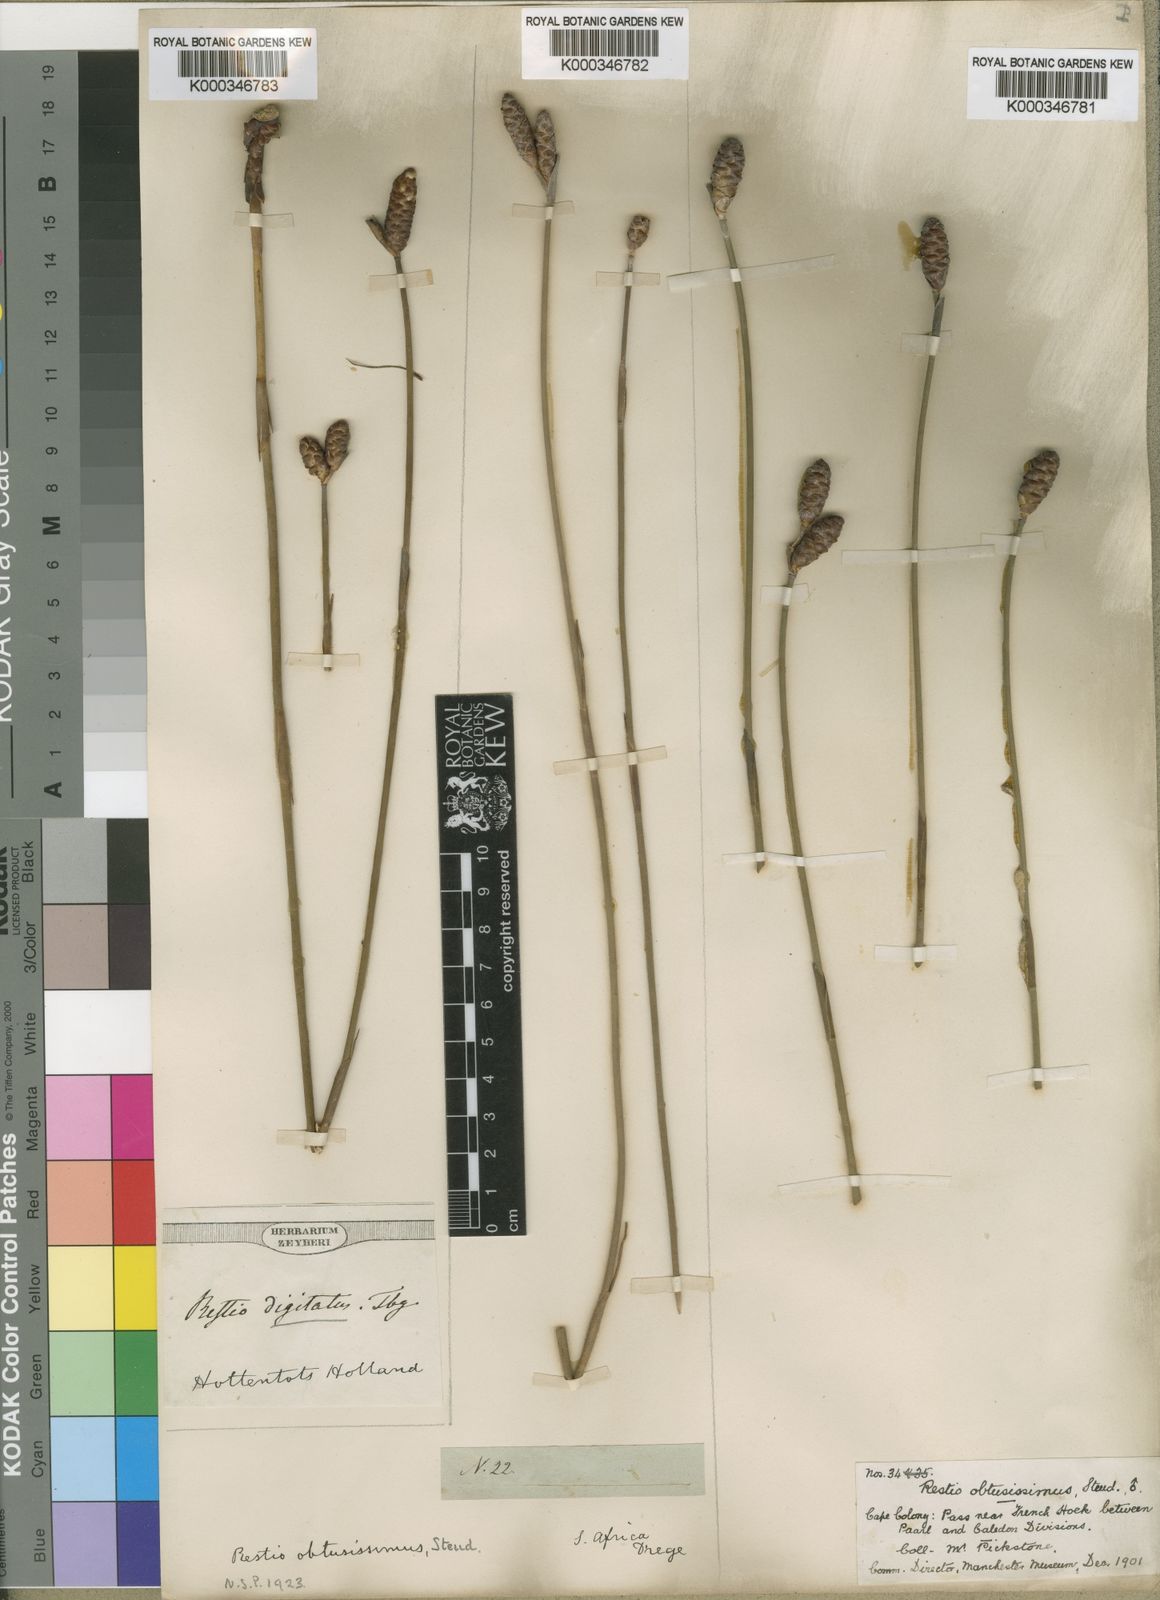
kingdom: Plantae
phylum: Tracheophyta
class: Liliopsida
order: Poales
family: Restionaceae
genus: Nevillea
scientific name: Nevillea obtusissimus
